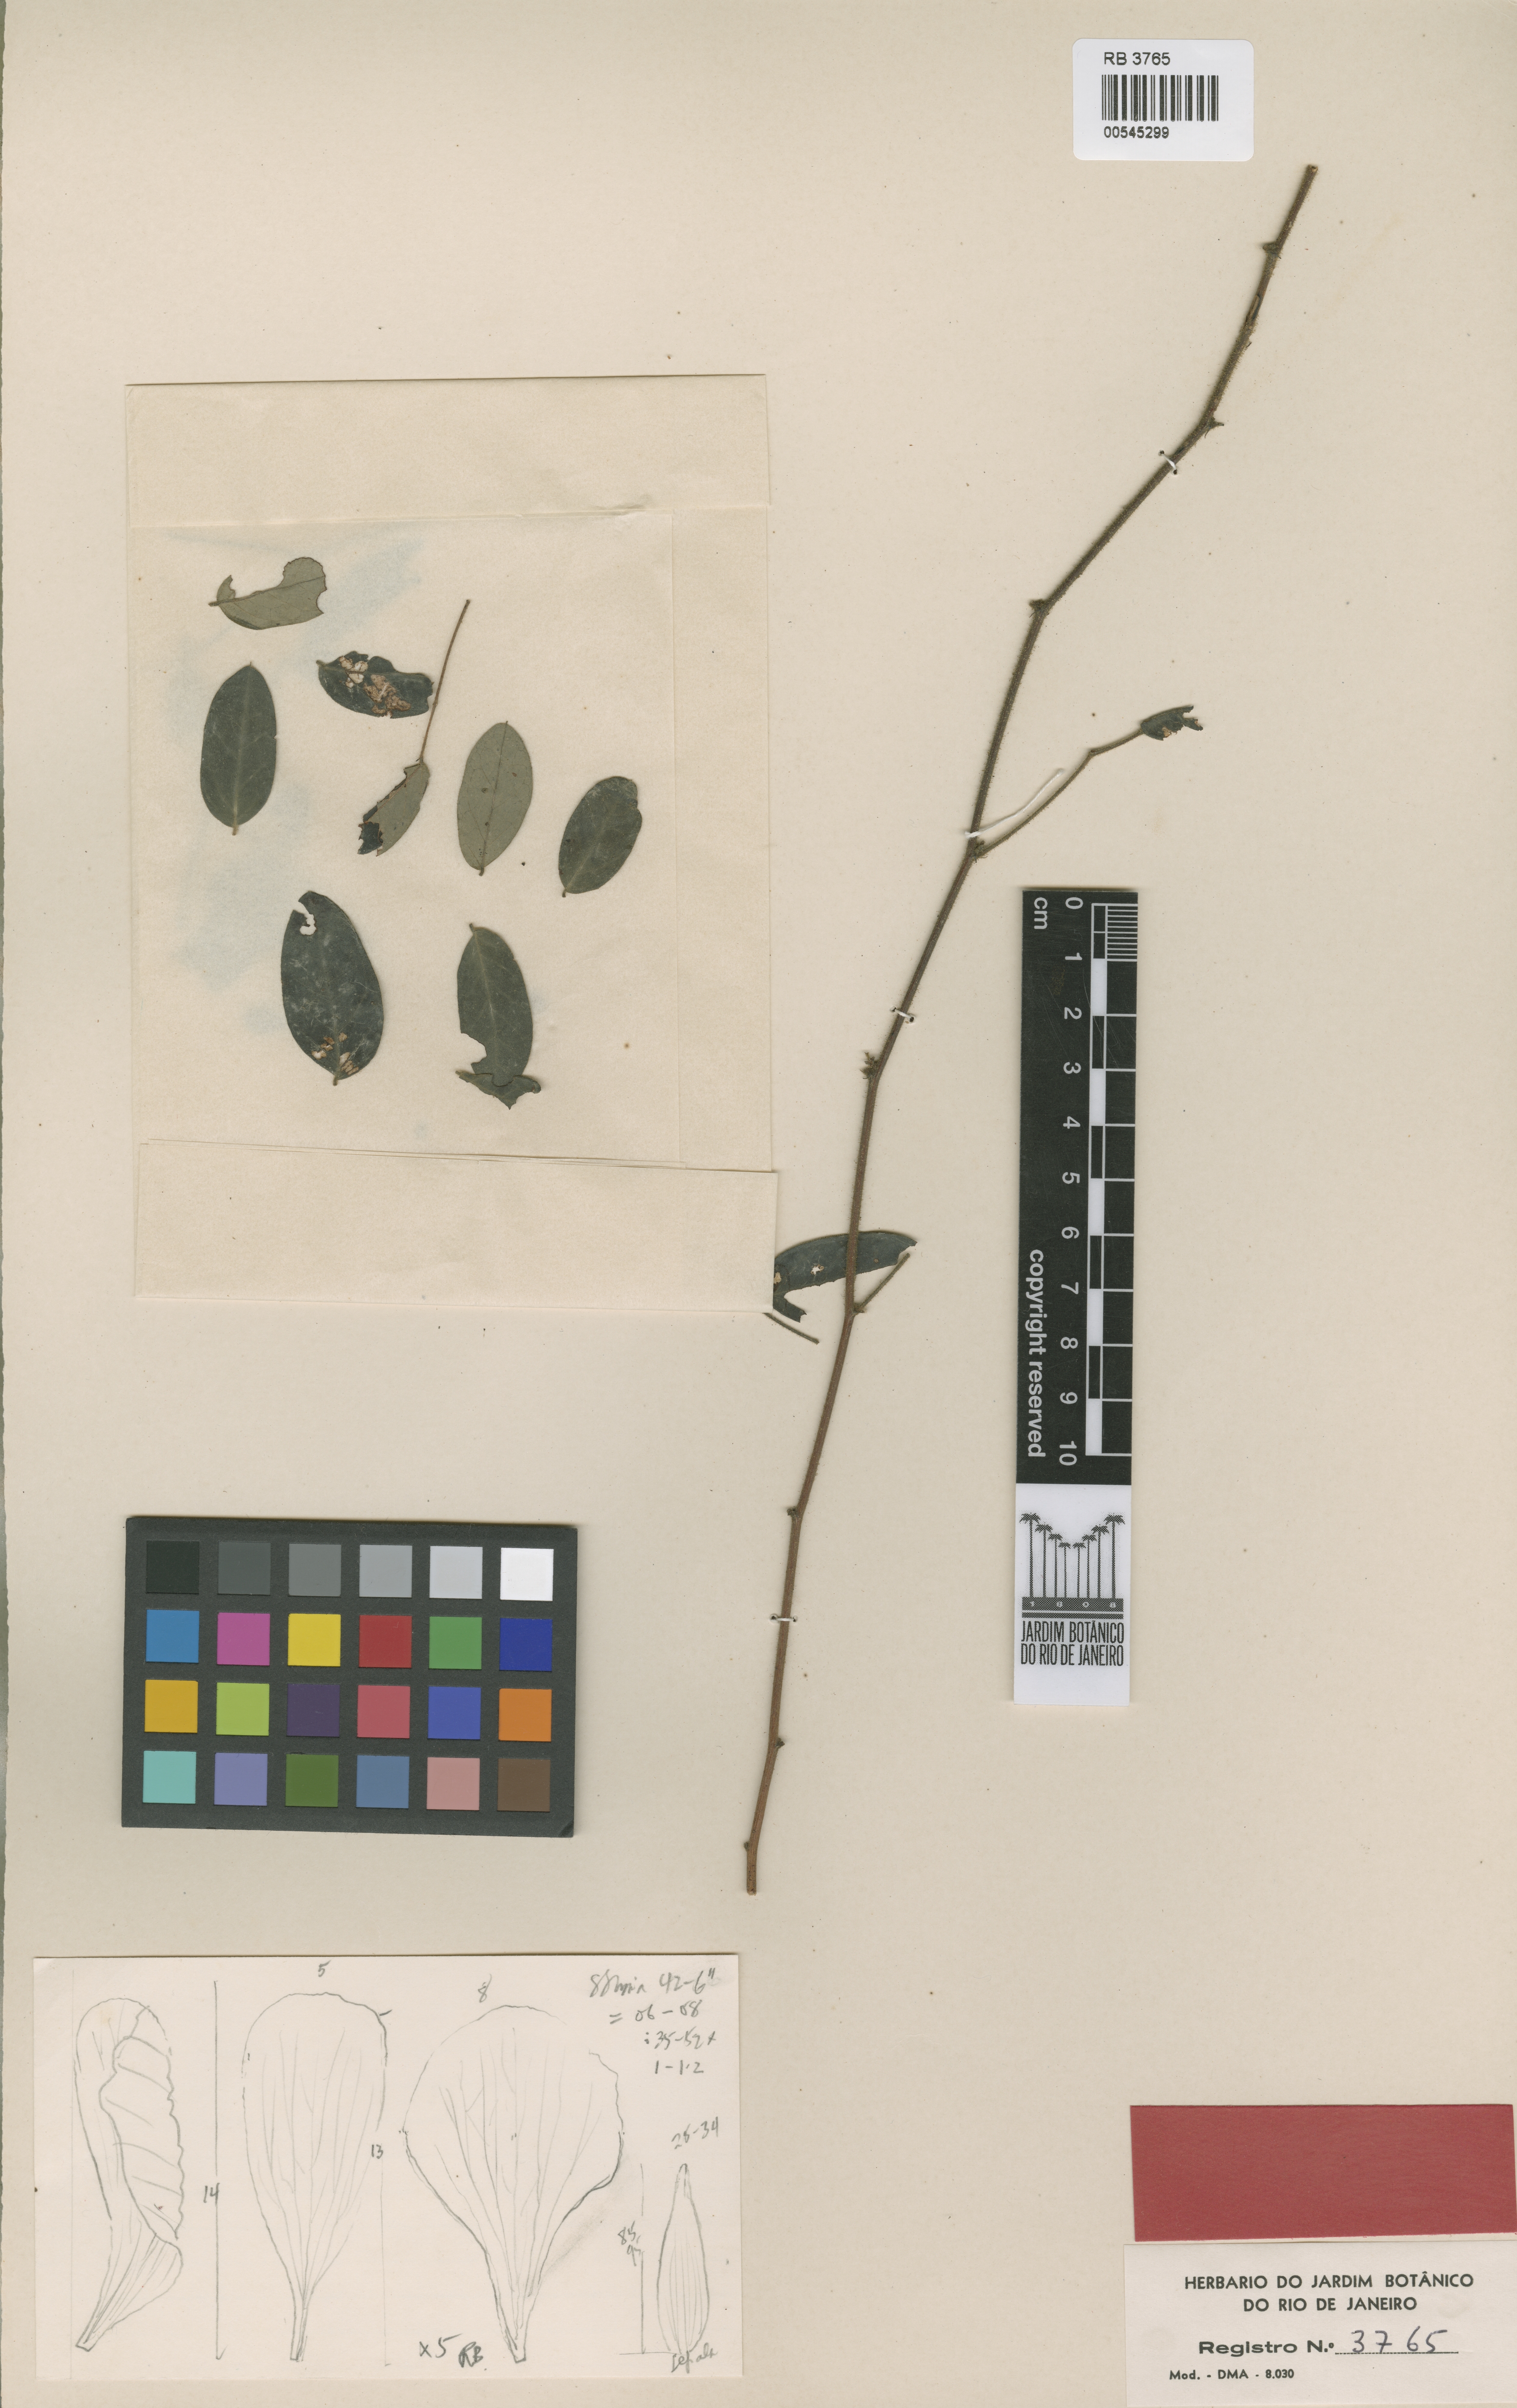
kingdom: Plantae
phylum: Tracheophyta
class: Magnoliopsida
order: Fabales
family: Fabaceae
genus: Chamaecrista
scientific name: Chamaecrista carobinha
